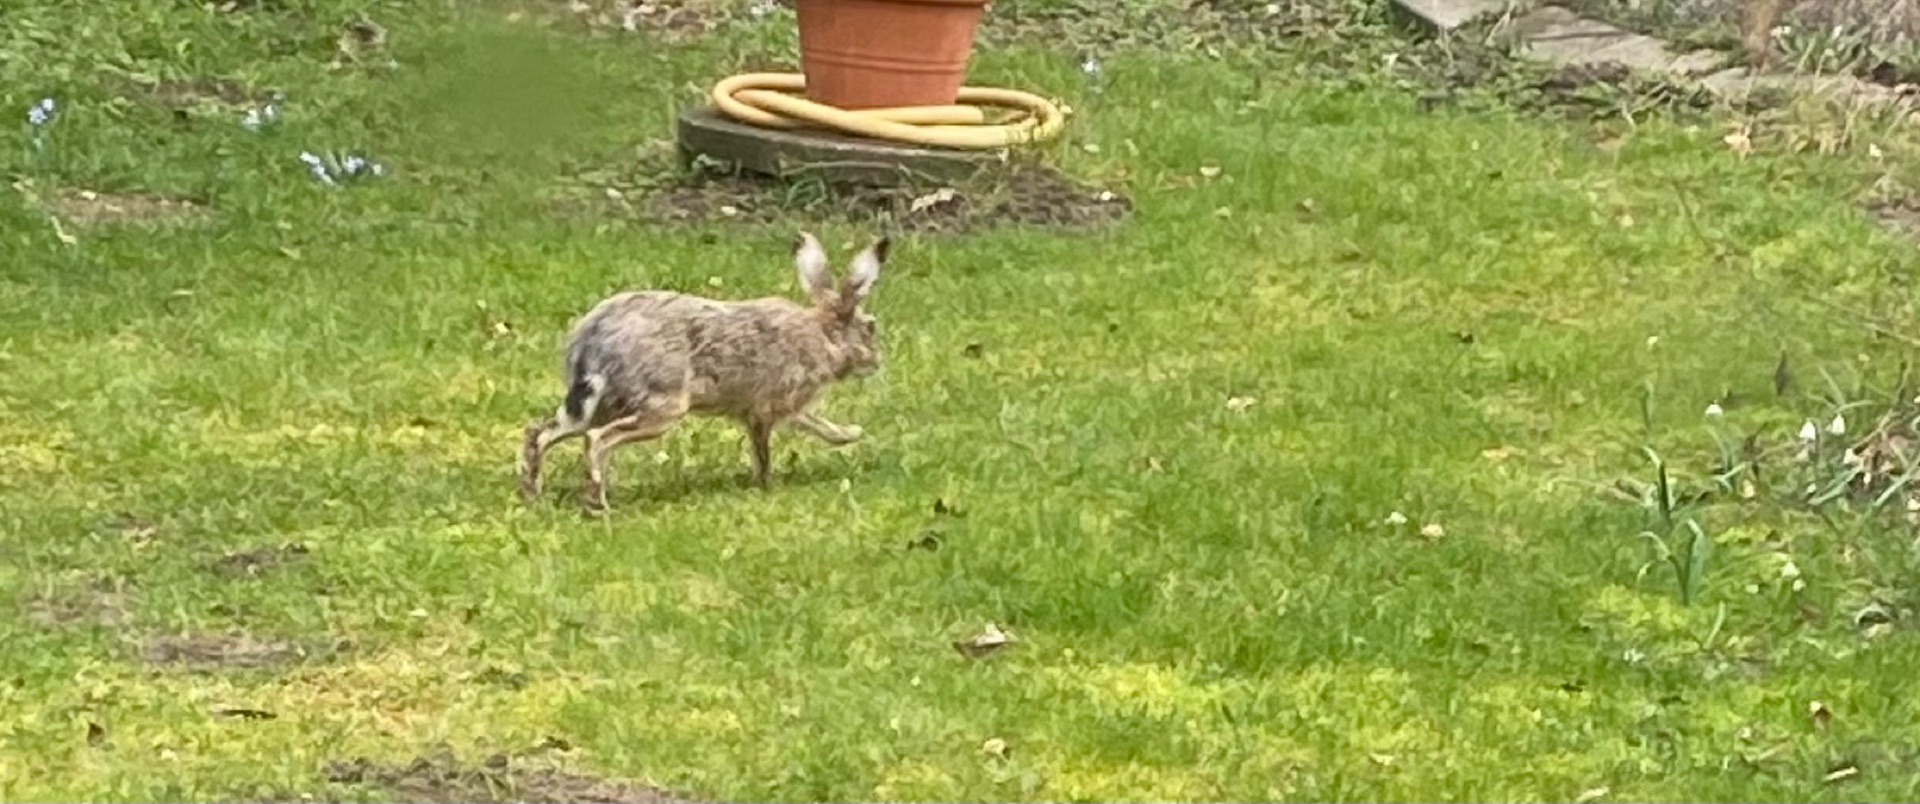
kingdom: Animalia
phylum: Chordata
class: Mammalia
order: Lagomorpha
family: Leporidae
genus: Lepus
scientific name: Lepus europaeus
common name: Hare
